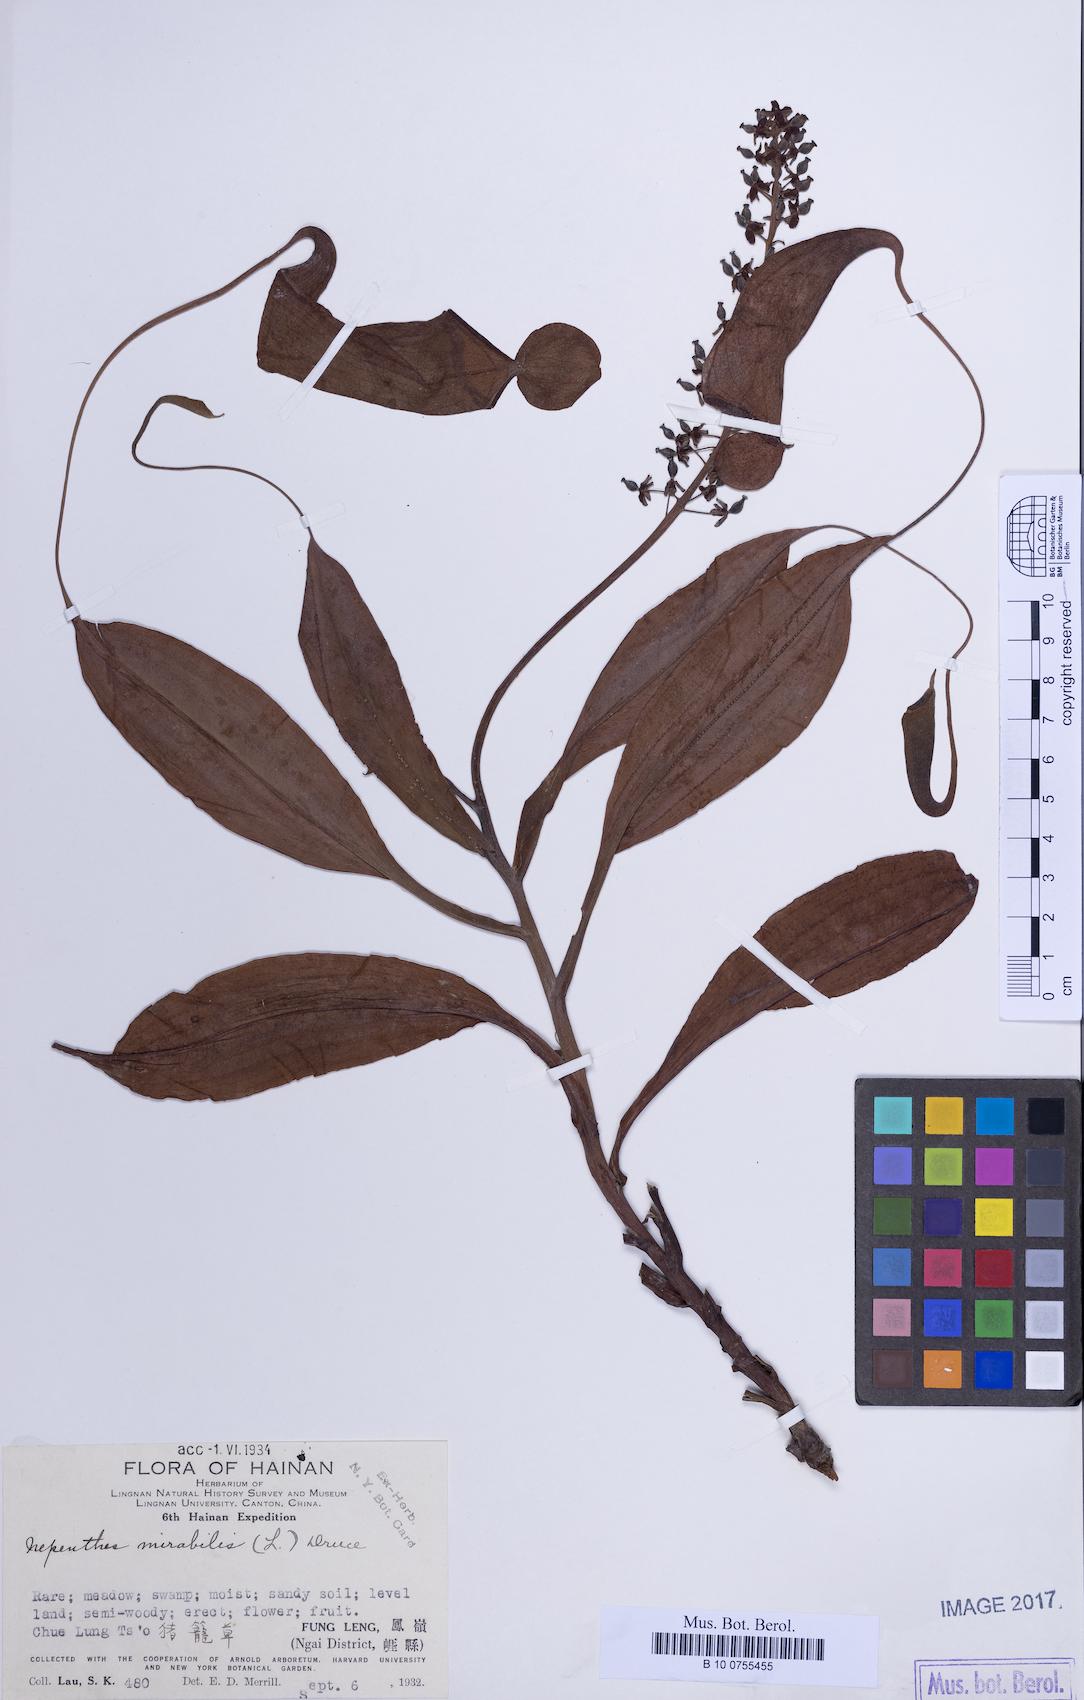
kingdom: Plantae
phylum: Tracheophyta
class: Magnoliopsida
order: Caryophyllales
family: Nepenthaceae
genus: Nepenthes
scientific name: Nepenthes mirabilis
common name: Tropical pitcherplant
